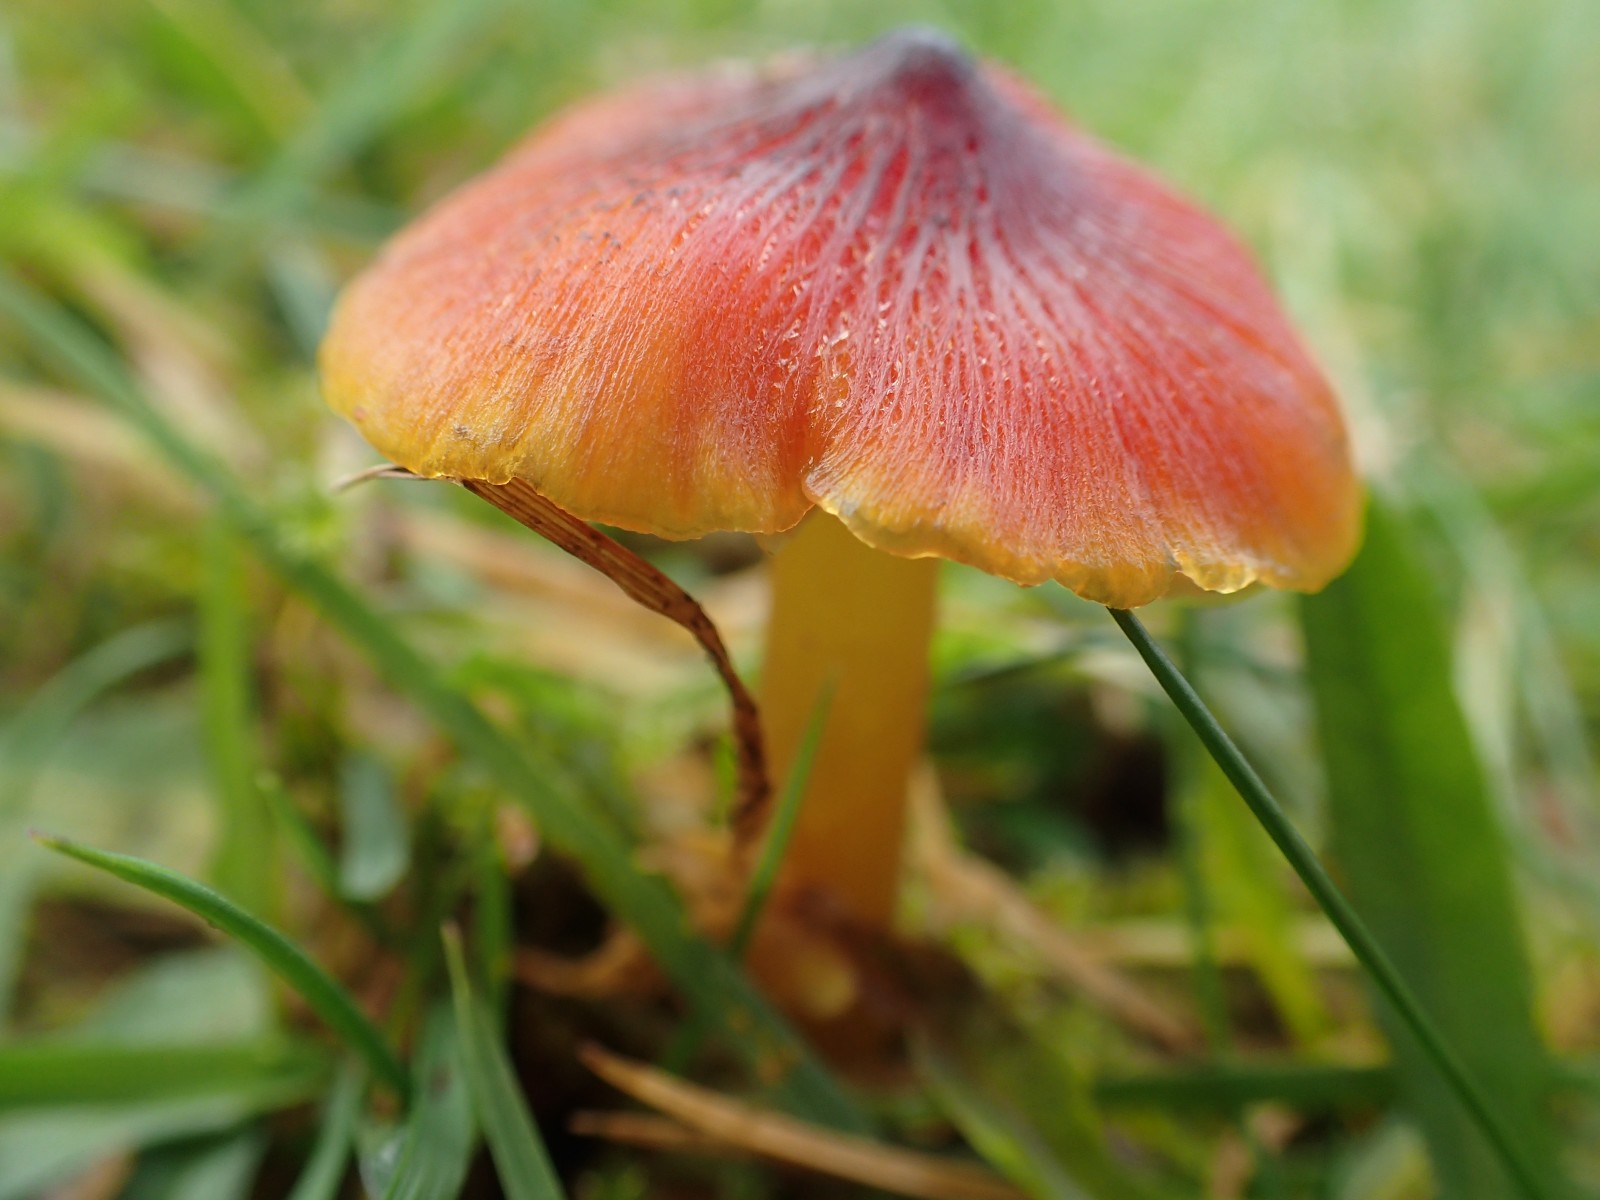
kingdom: Fungi
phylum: Basidiomycota
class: Agaricomycetes
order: Agaricales
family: Hygrophoraceae
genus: Hygrocybe
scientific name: Hygrocybe conica
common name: kegle-vokshat
